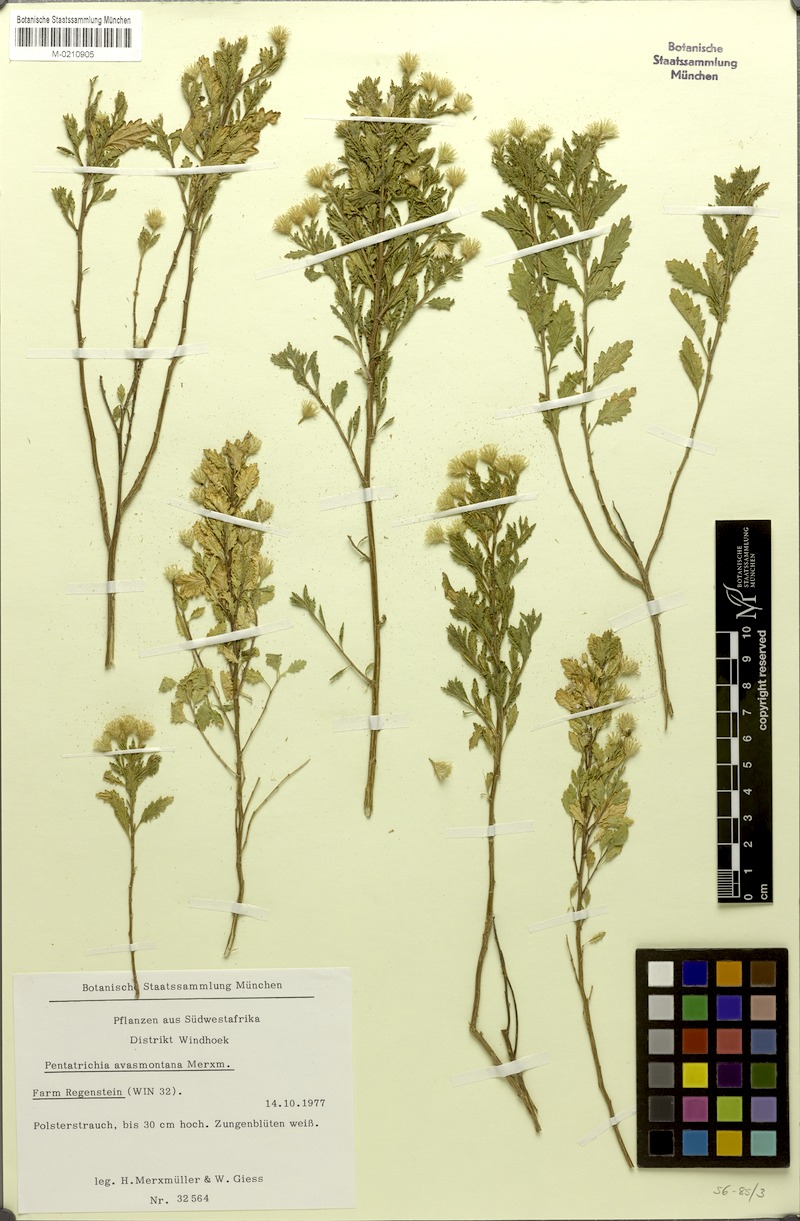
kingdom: Plantae
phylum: Tracheophyta
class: Magnoliopsida
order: Asterales
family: Asteraceae
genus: Pentatrichia
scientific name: Pentatrichia rehmii
